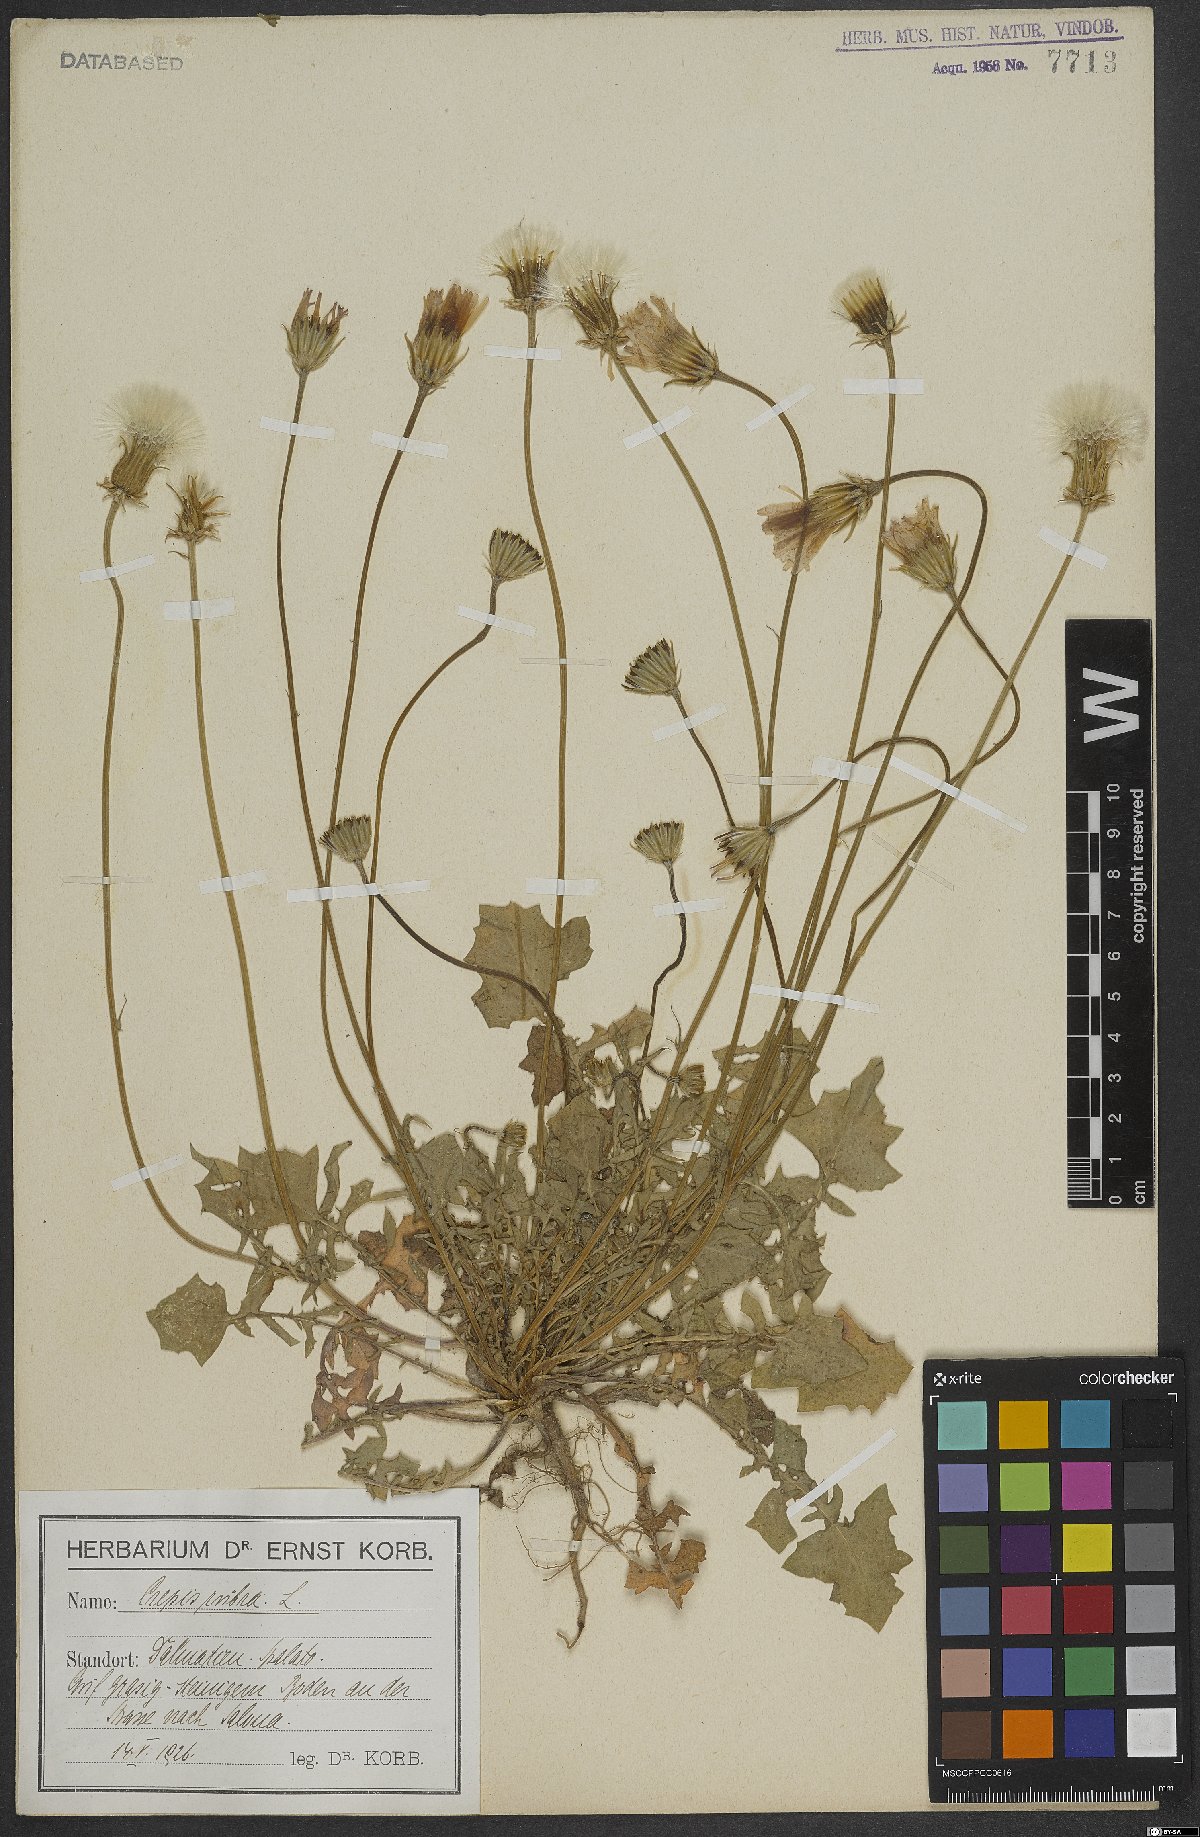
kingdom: Plantae
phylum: Tracheophyta
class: Magnoliopsida
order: Asterales
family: Asteraceae
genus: Crepis
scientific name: Crepis rubra
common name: Pink hawk's-beard
